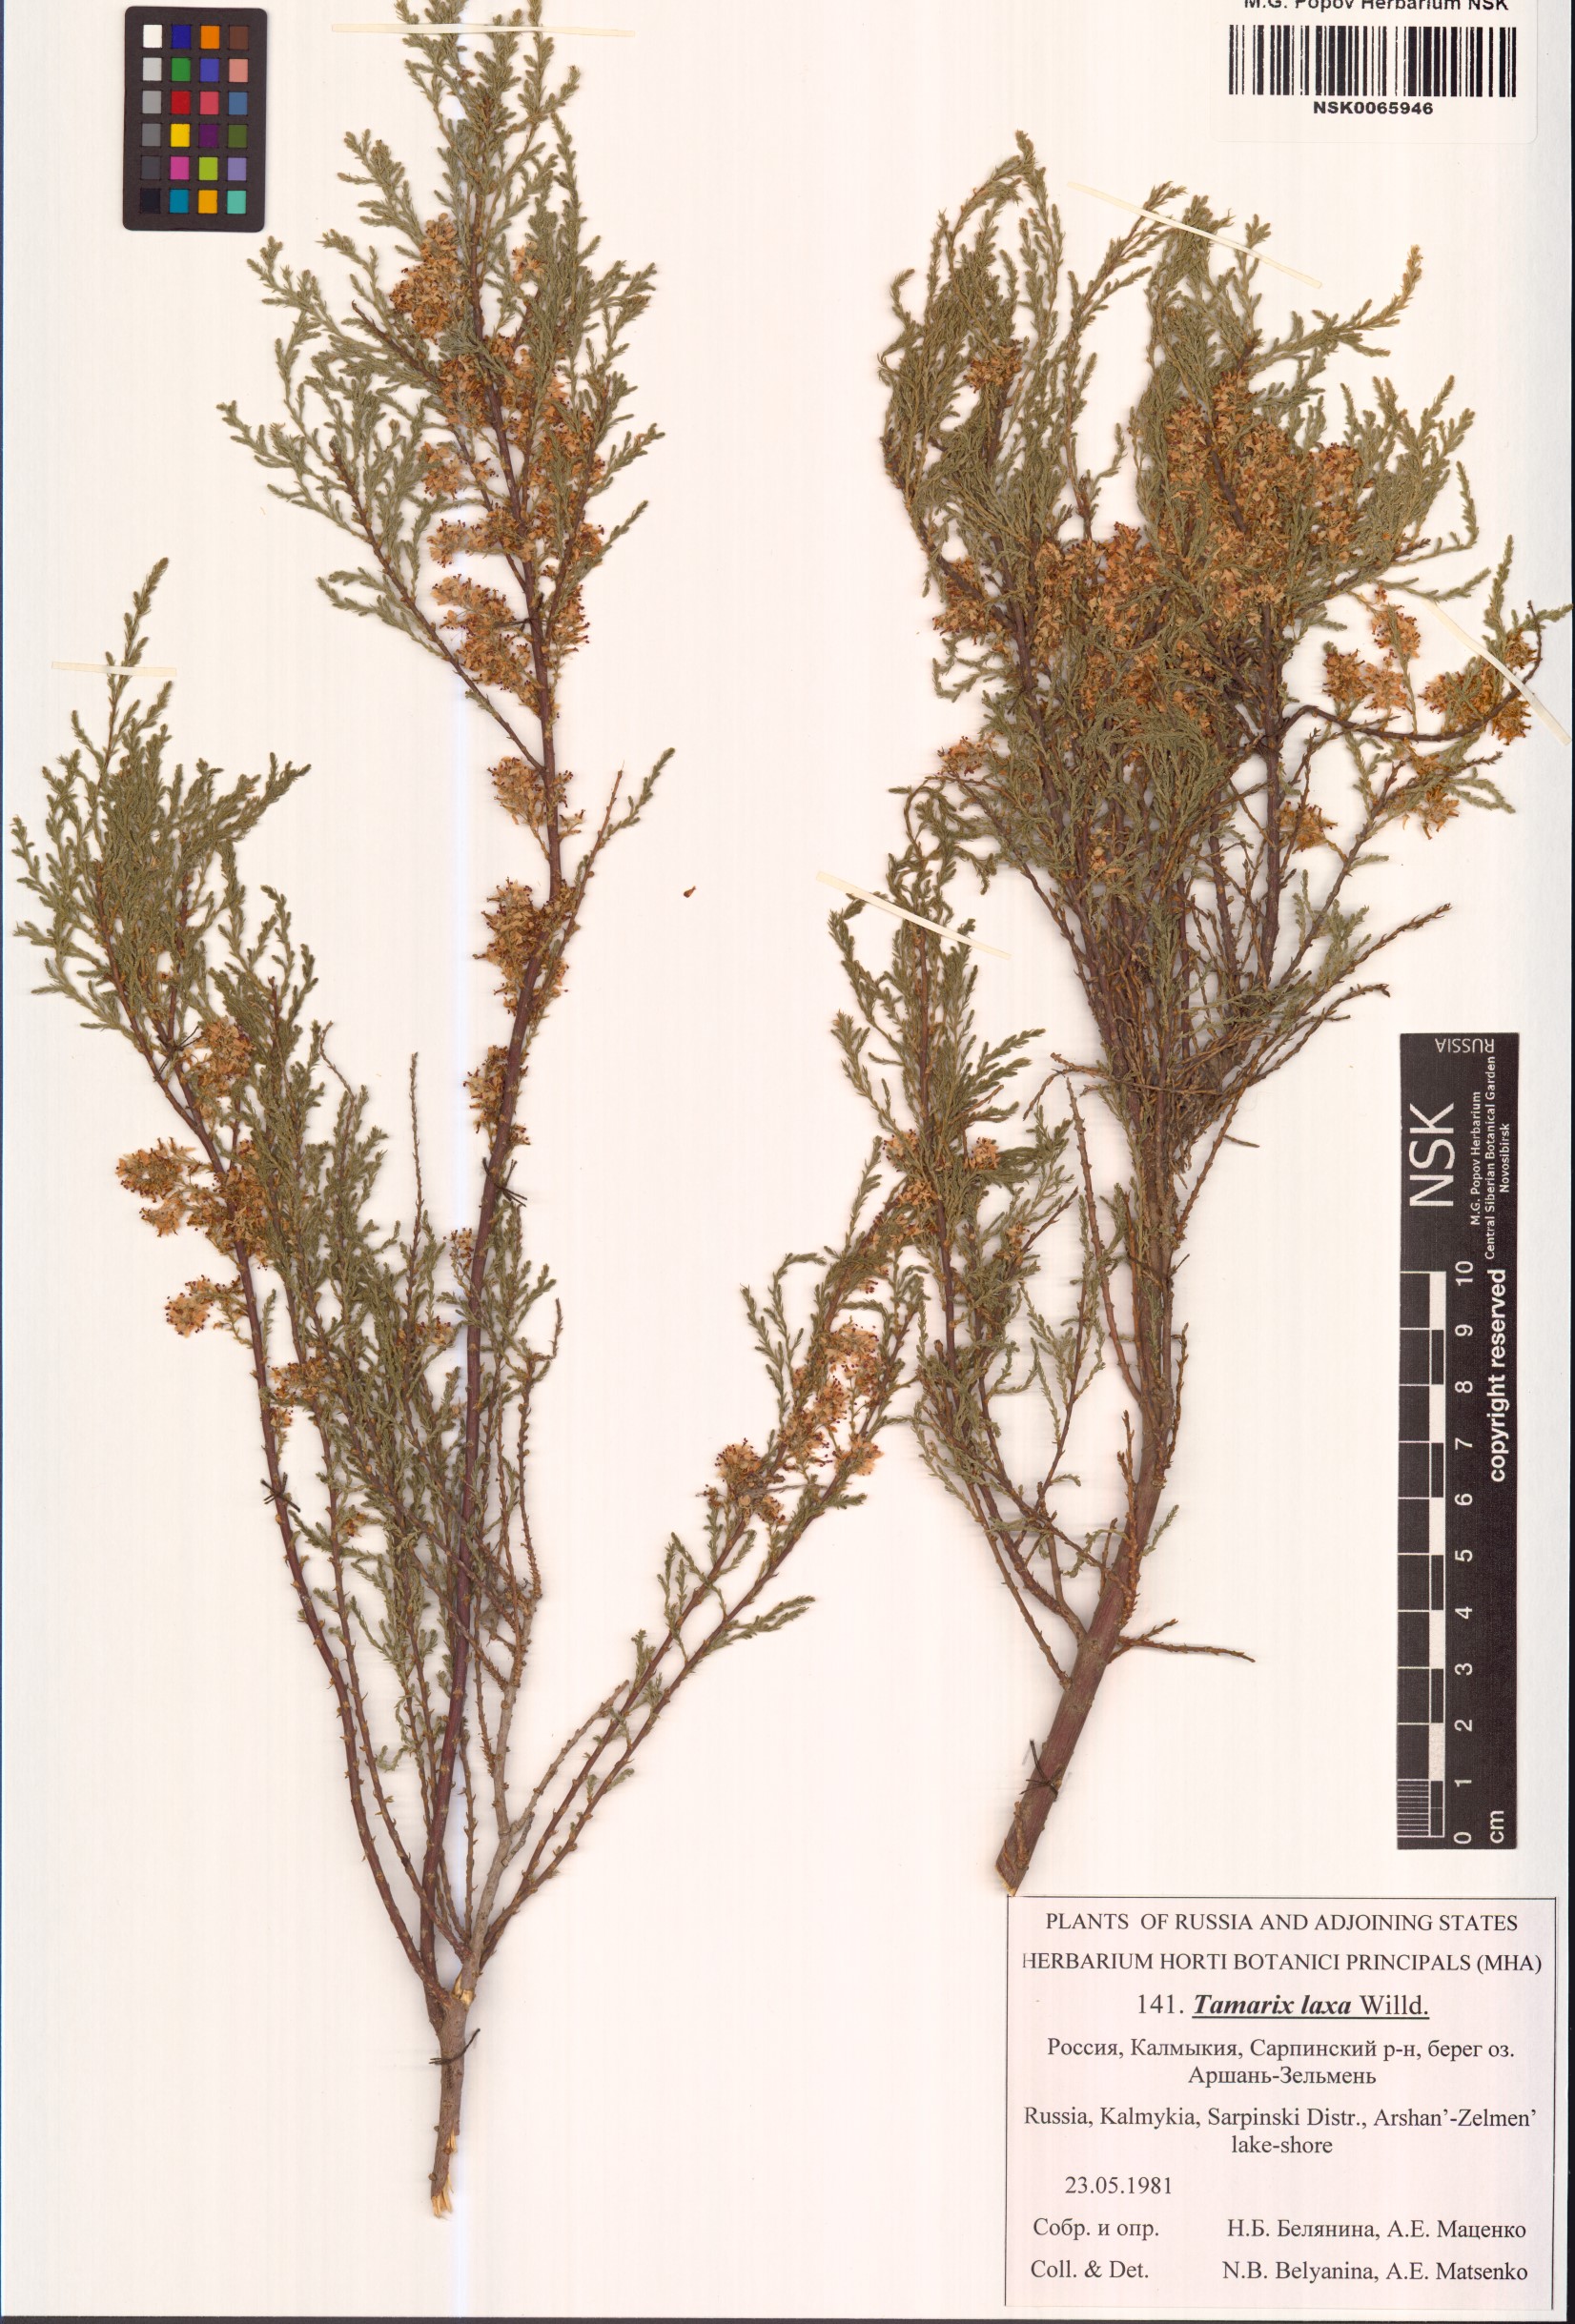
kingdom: Plantae
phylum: Tracheophyta
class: Magnoliopsida
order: Caryophyllales
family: Tamaricaceae
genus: Tamarix
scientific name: Tamarix laxa
